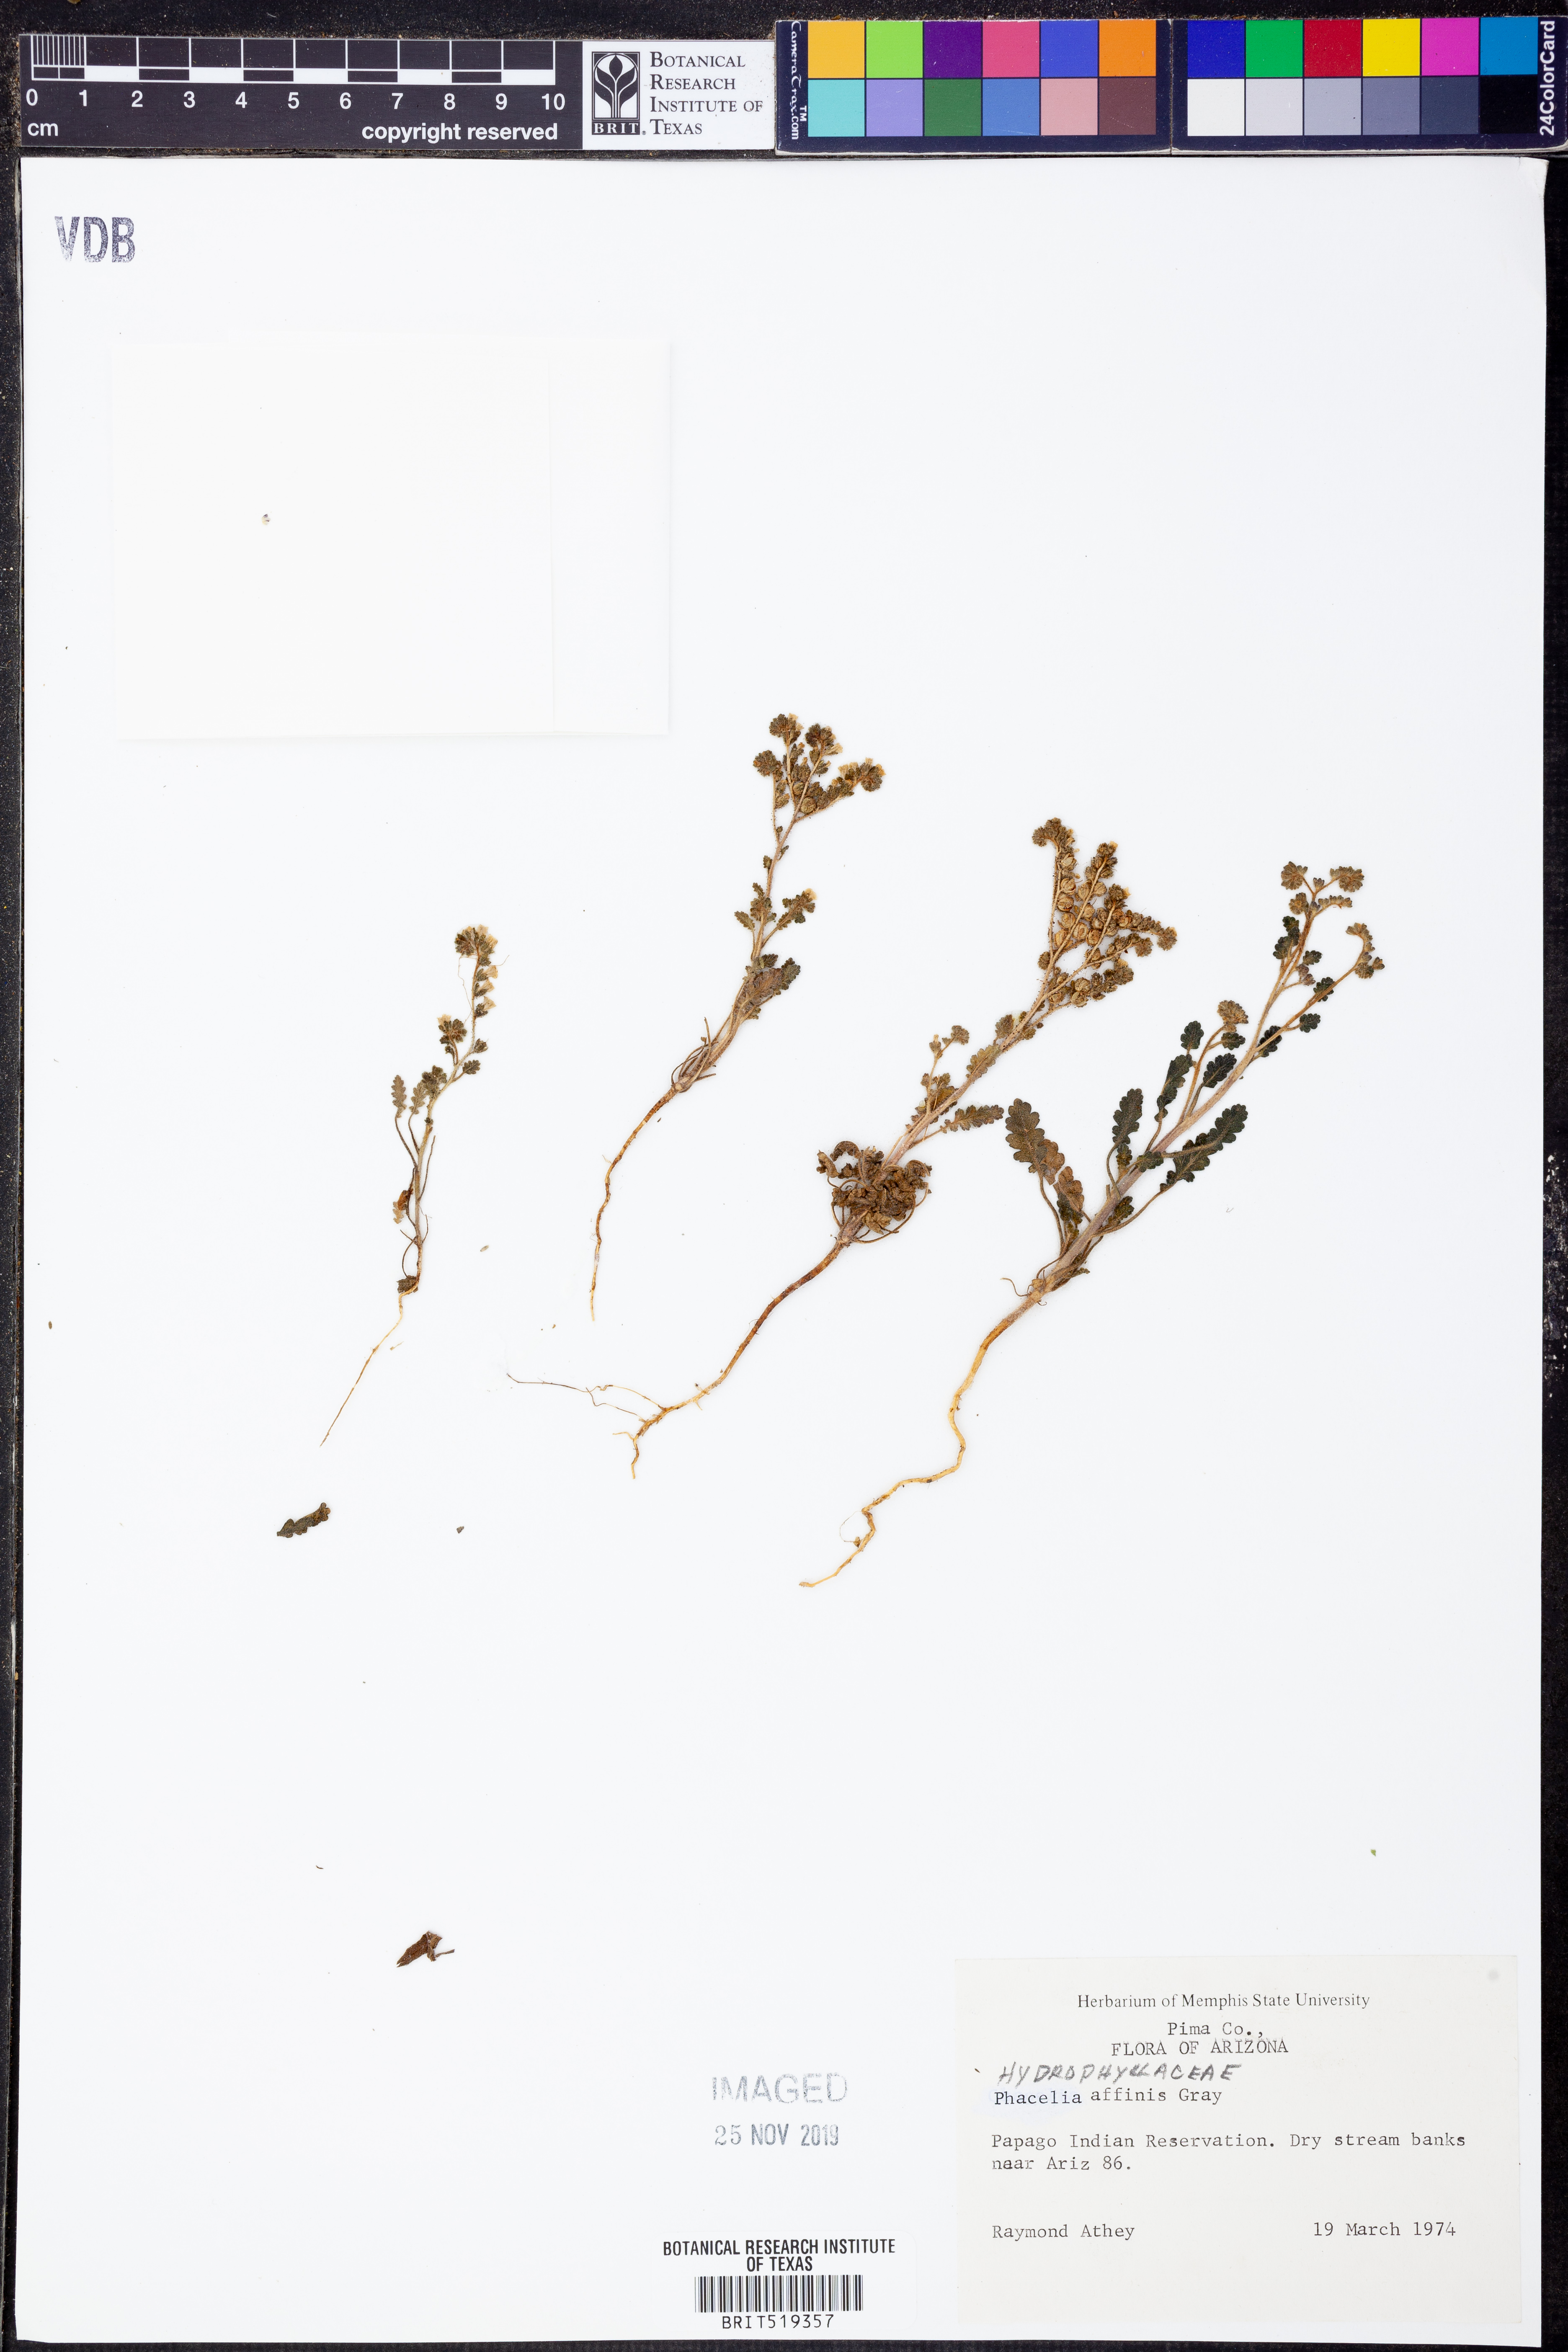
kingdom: Plantae
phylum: Tracheophyta
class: Magnoliopsida
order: Boraginales
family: Hydrophyllaceae
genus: Phacelia
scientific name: Phacelia affinis
